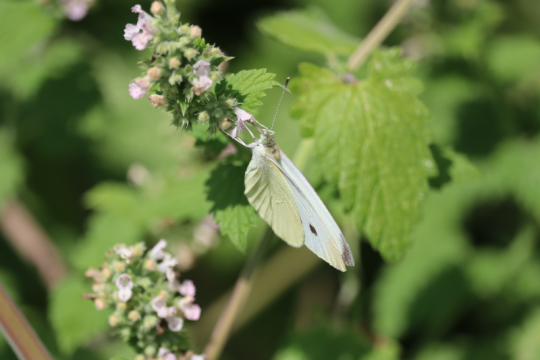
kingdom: Animalia
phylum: Arthropoda
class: Insecta
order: Lepidoptera
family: Pieridae
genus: Pieris
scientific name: Pieris rapae
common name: Cabbage White
